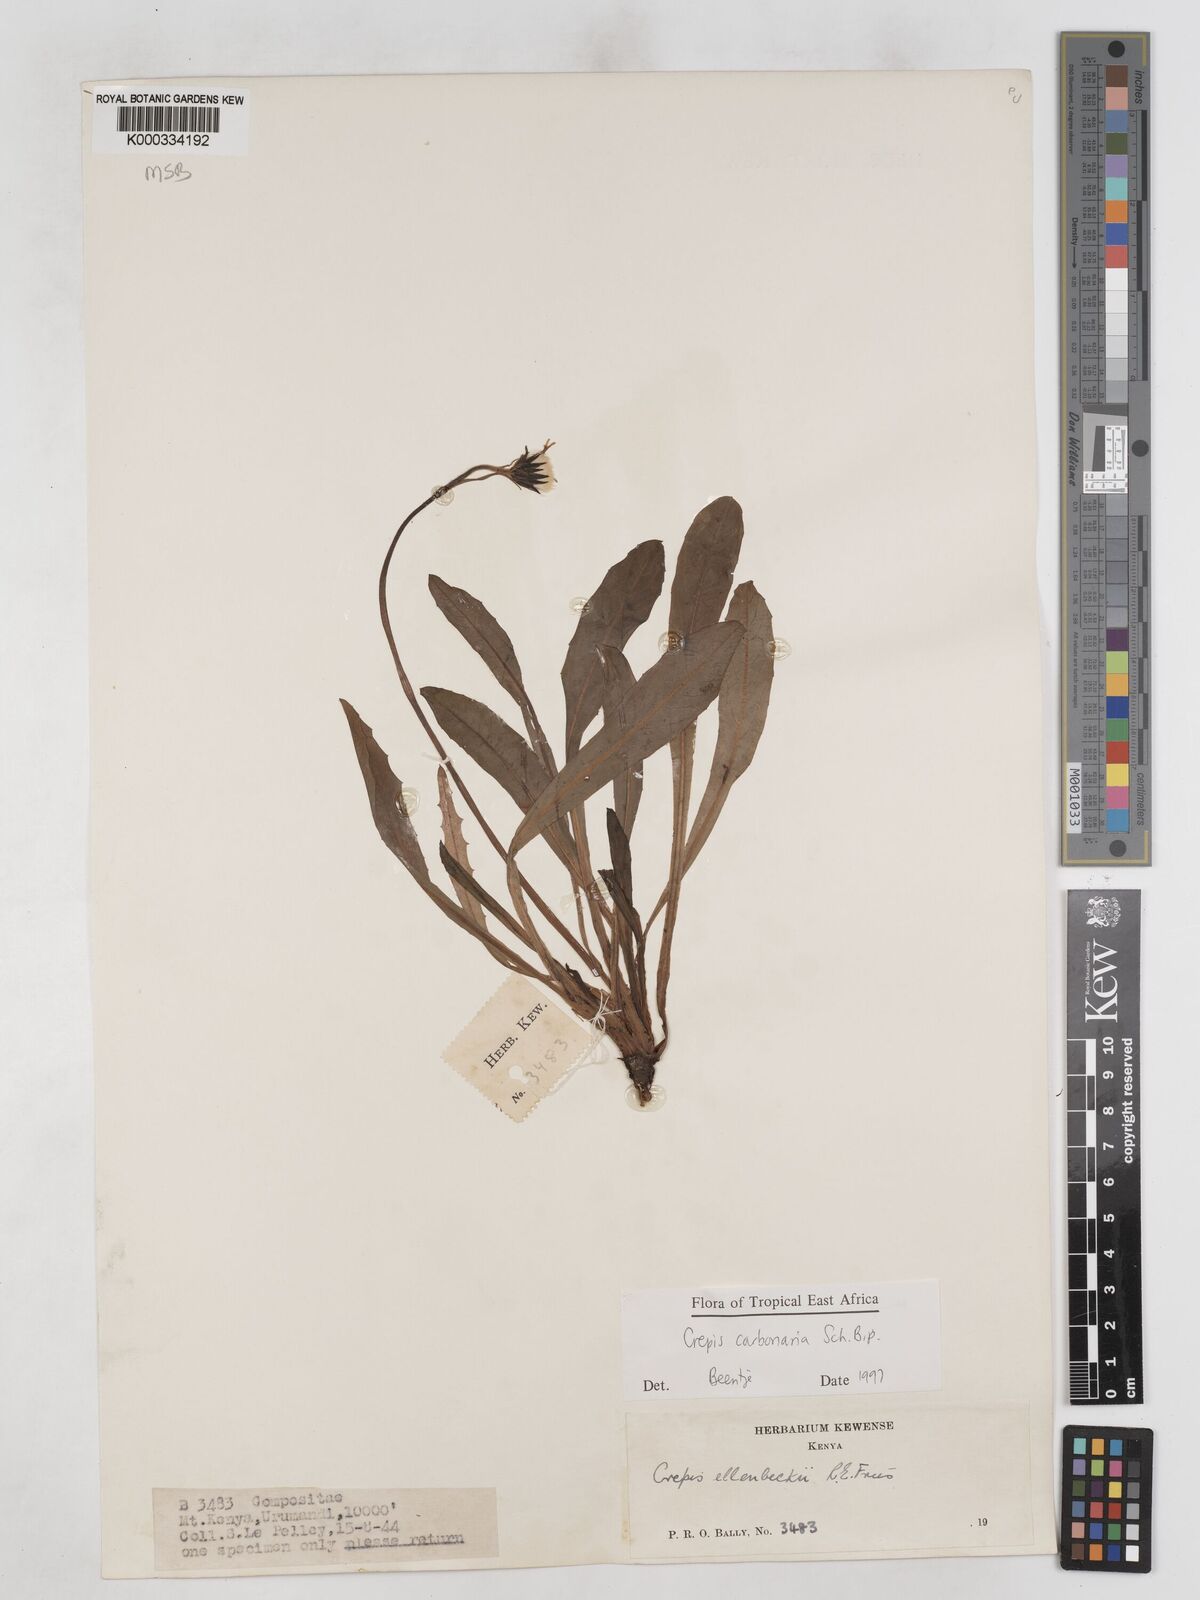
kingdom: Plantae
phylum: Tracheophyta
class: Magnoliopsida
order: Asterales
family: Asteraceae
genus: Crepis
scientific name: Crepis carbonaria
